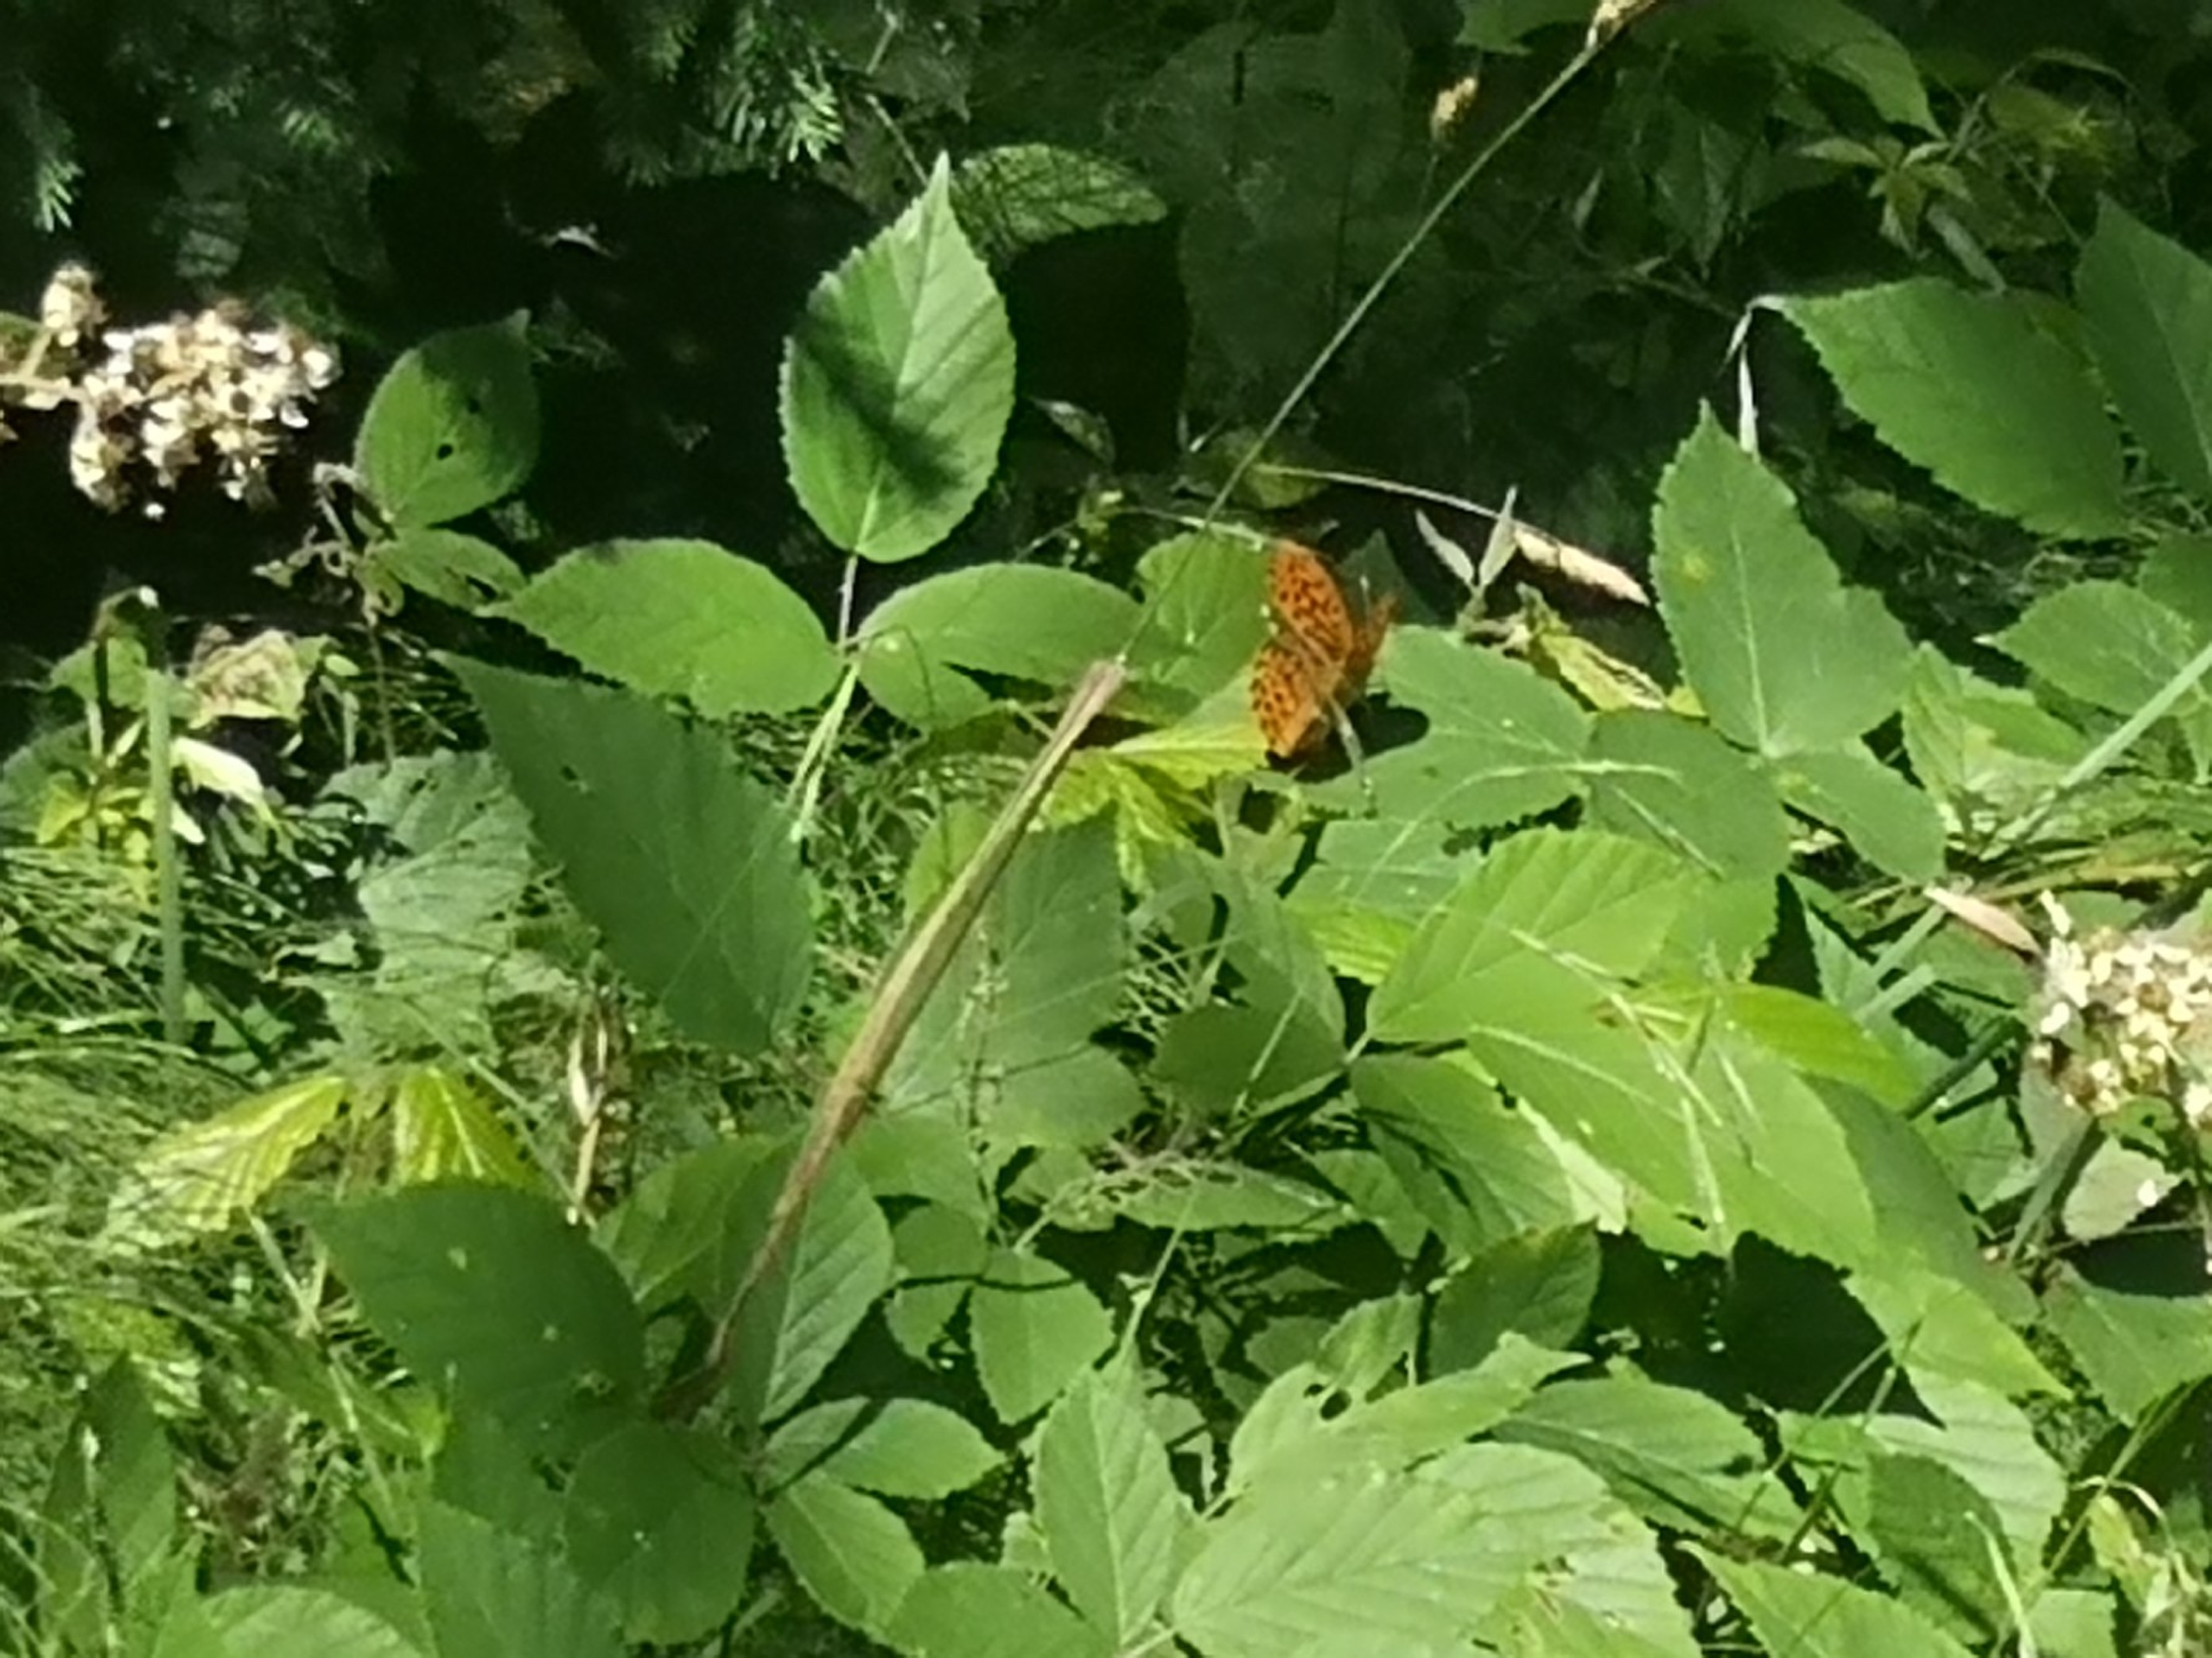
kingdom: Animalia
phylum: Arthropoda
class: Insecta
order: Lepidoptera
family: Nymphalidae
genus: Argynnis
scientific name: Argynnis paphia
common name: Kejserkåbe
